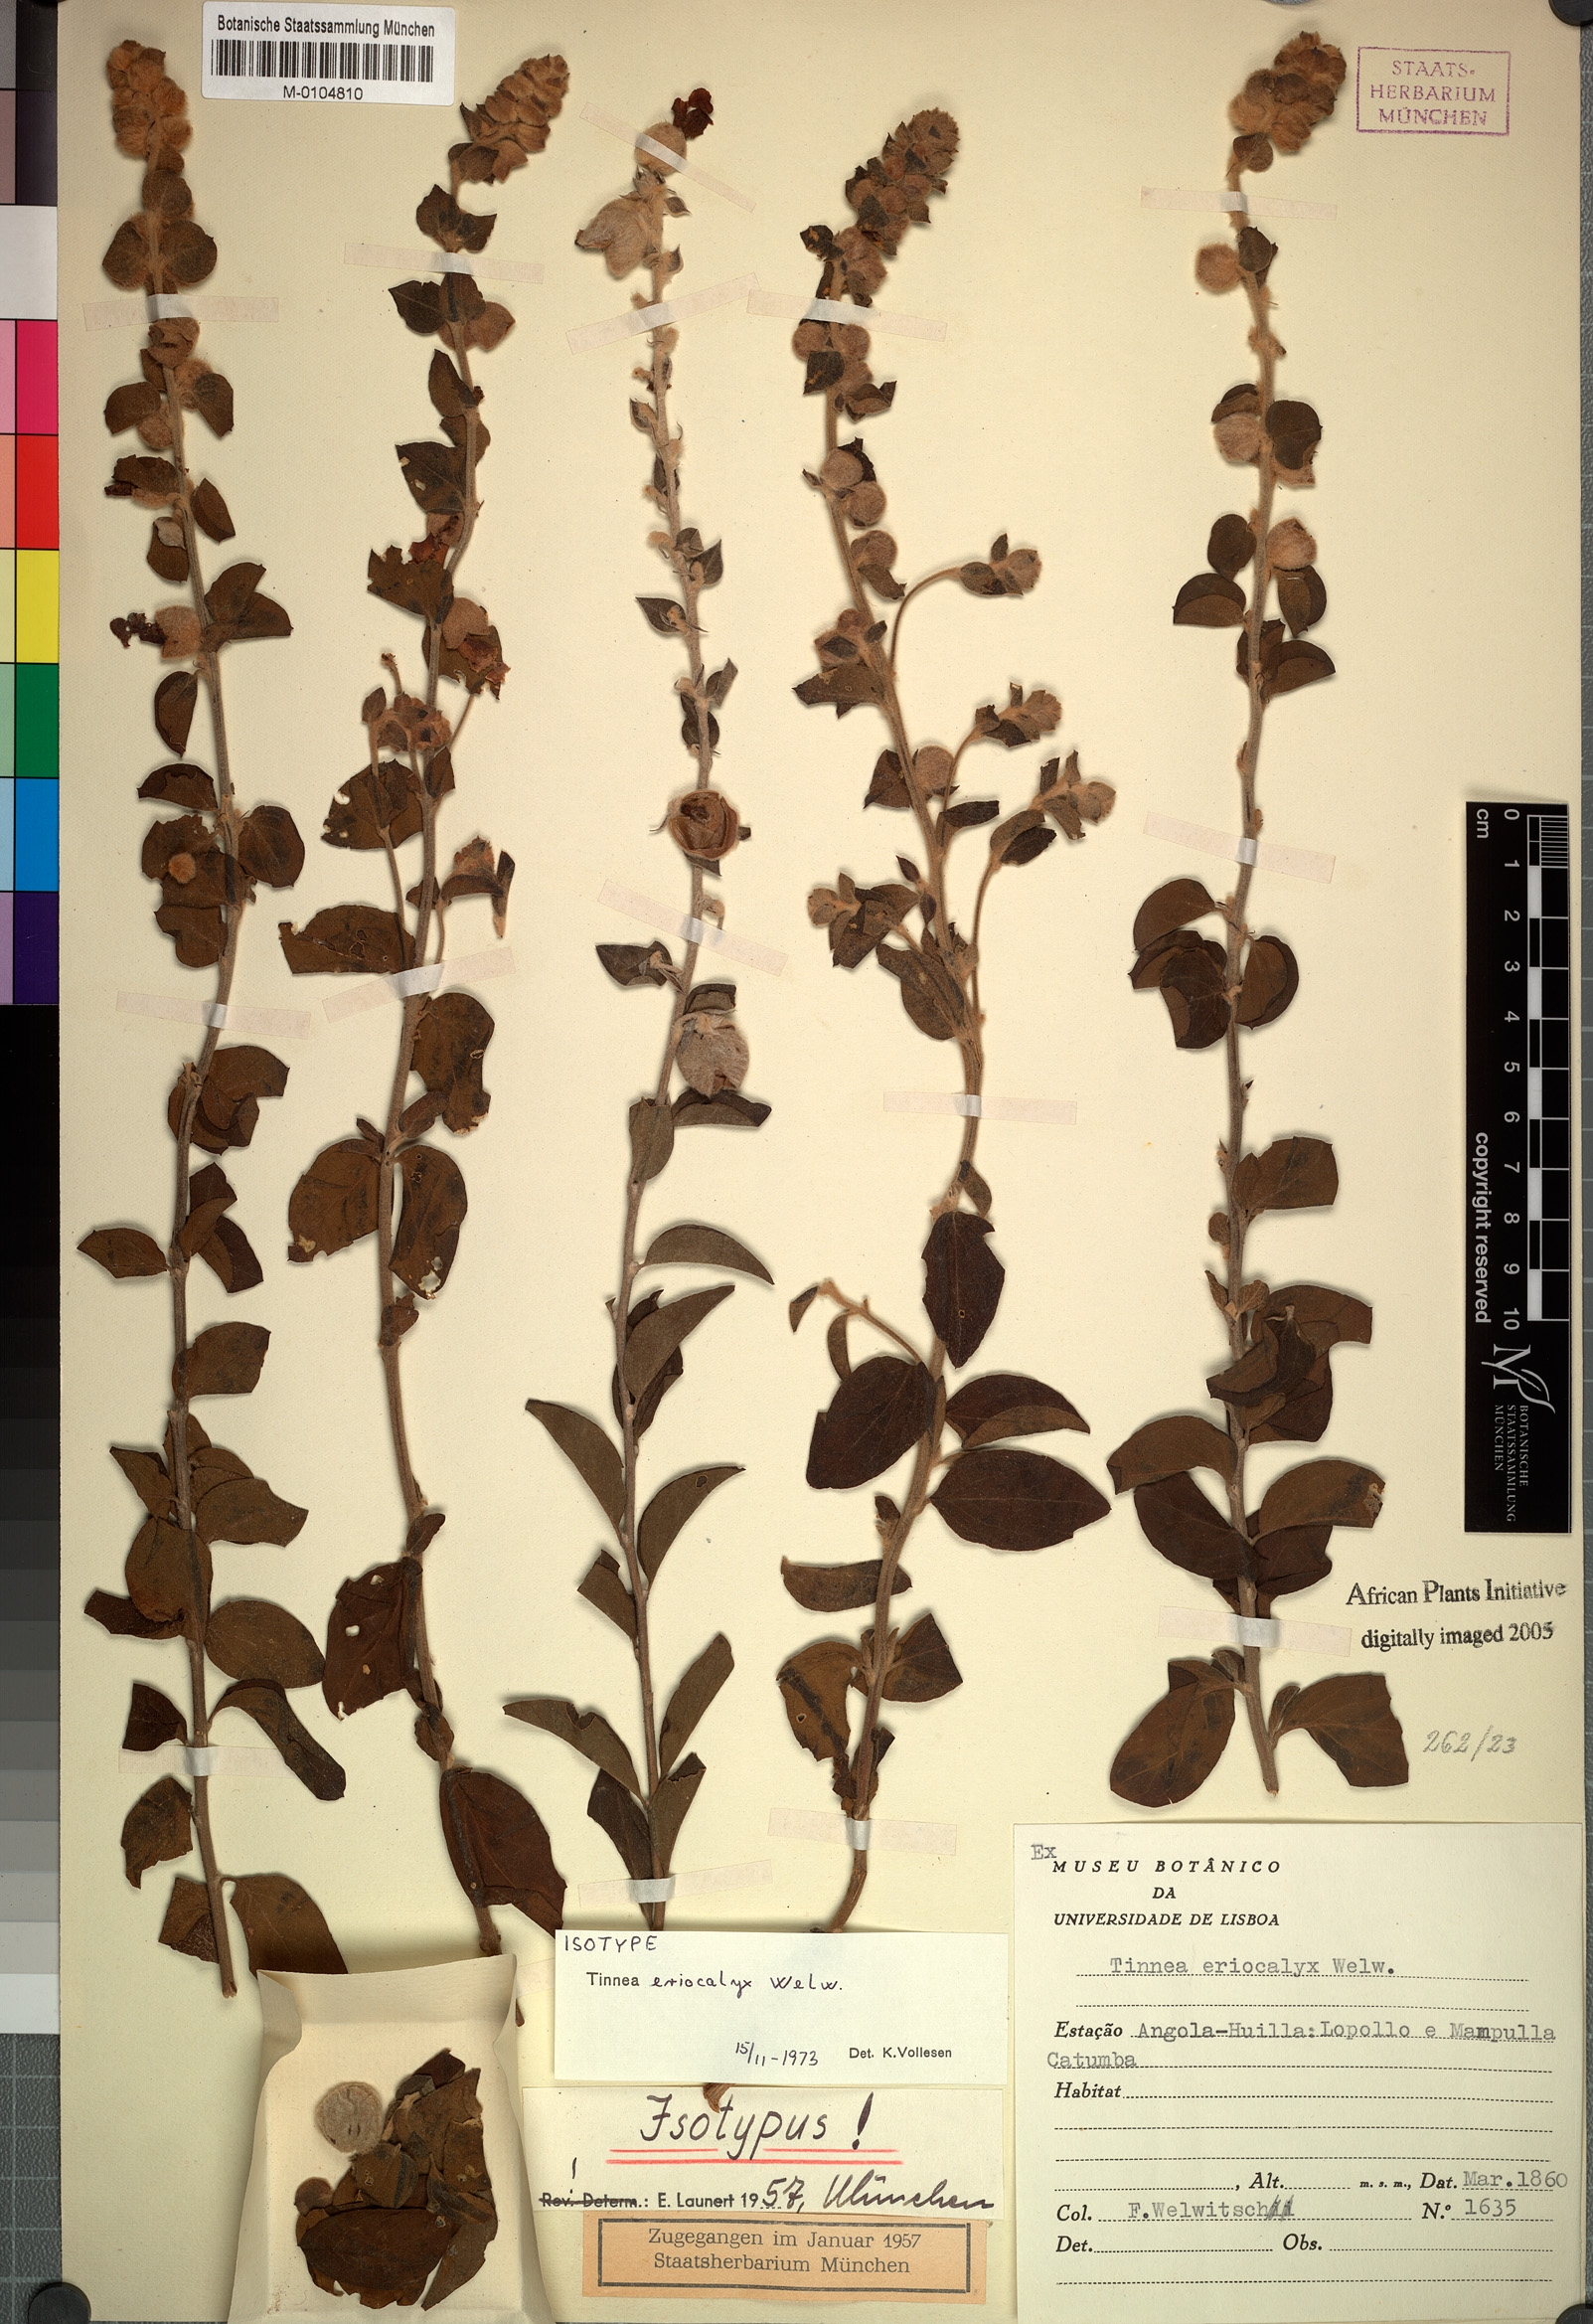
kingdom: Plantae
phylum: Tracheophyta
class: Magnoliopsida
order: Lamiales
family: Lamiaceae
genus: Tinnea
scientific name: Tinnea eriocalyx
